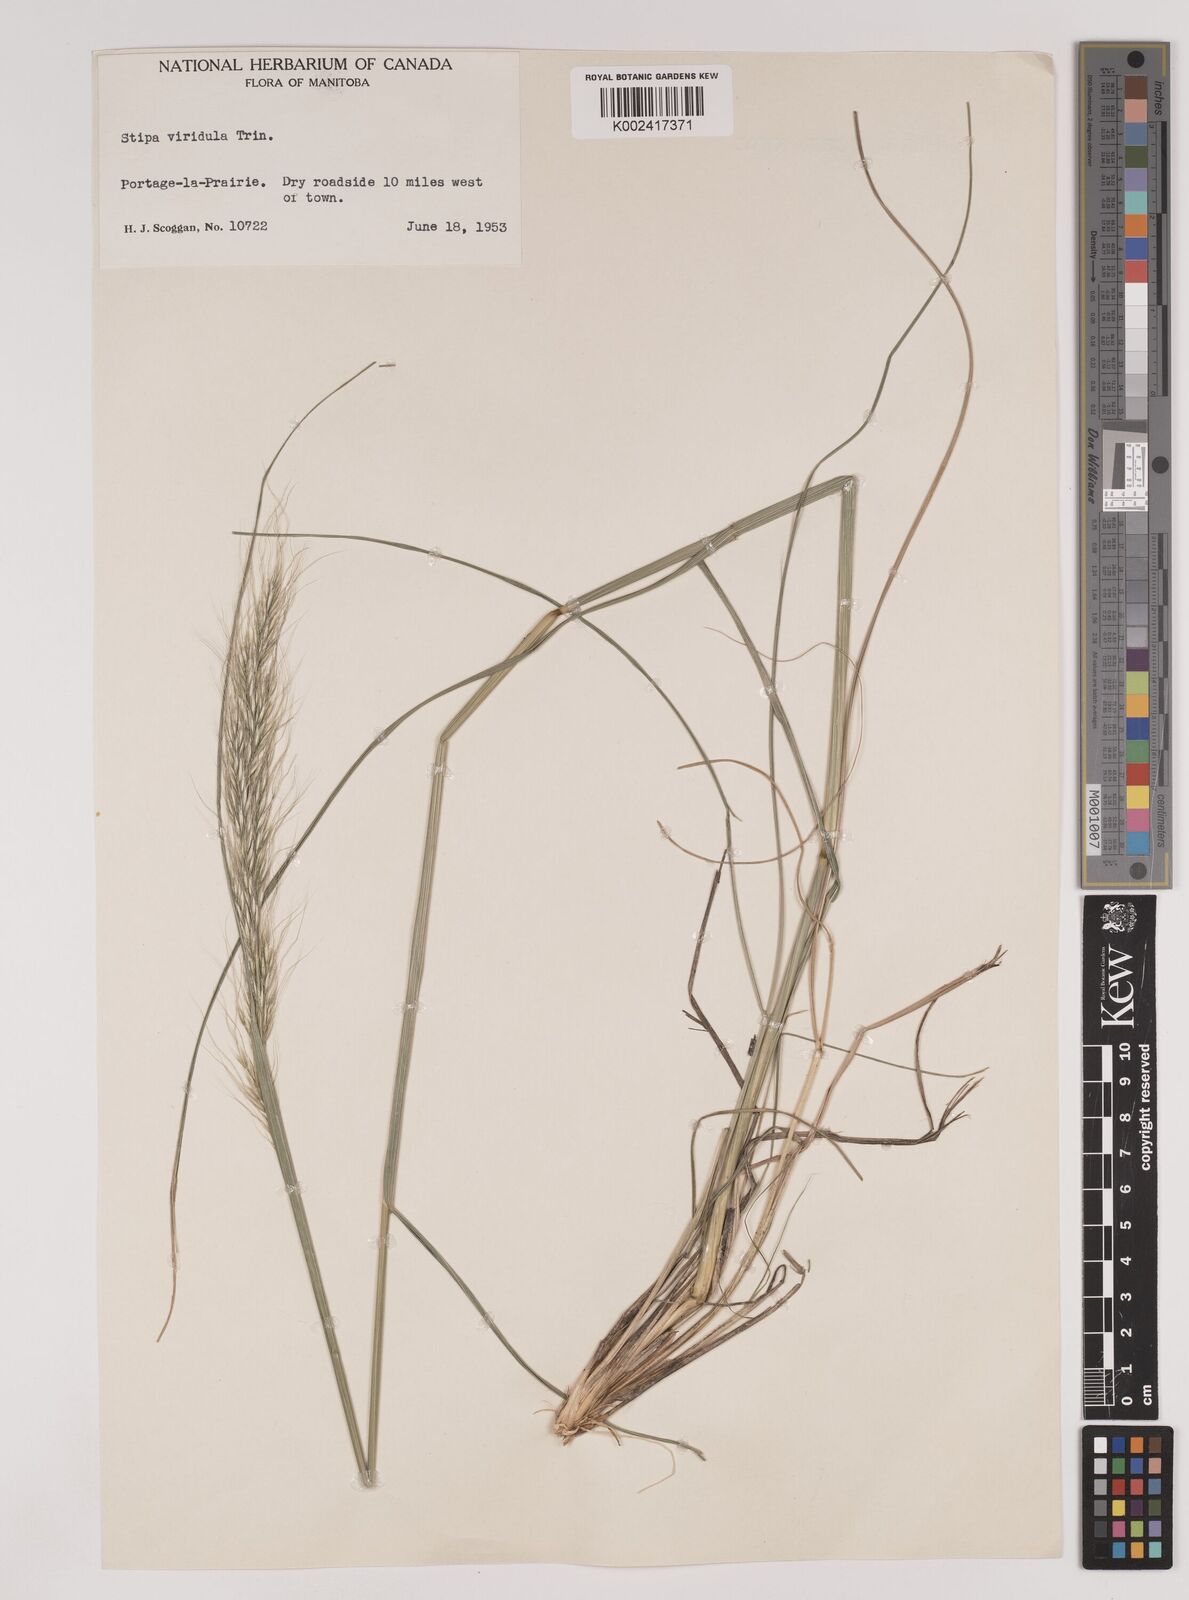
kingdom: Plantae
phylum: Tracheophyta
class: Liliopsida
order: Poales
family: Poaceae
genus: Nassella
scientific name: Nassella viridula
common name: Green needlegrass
